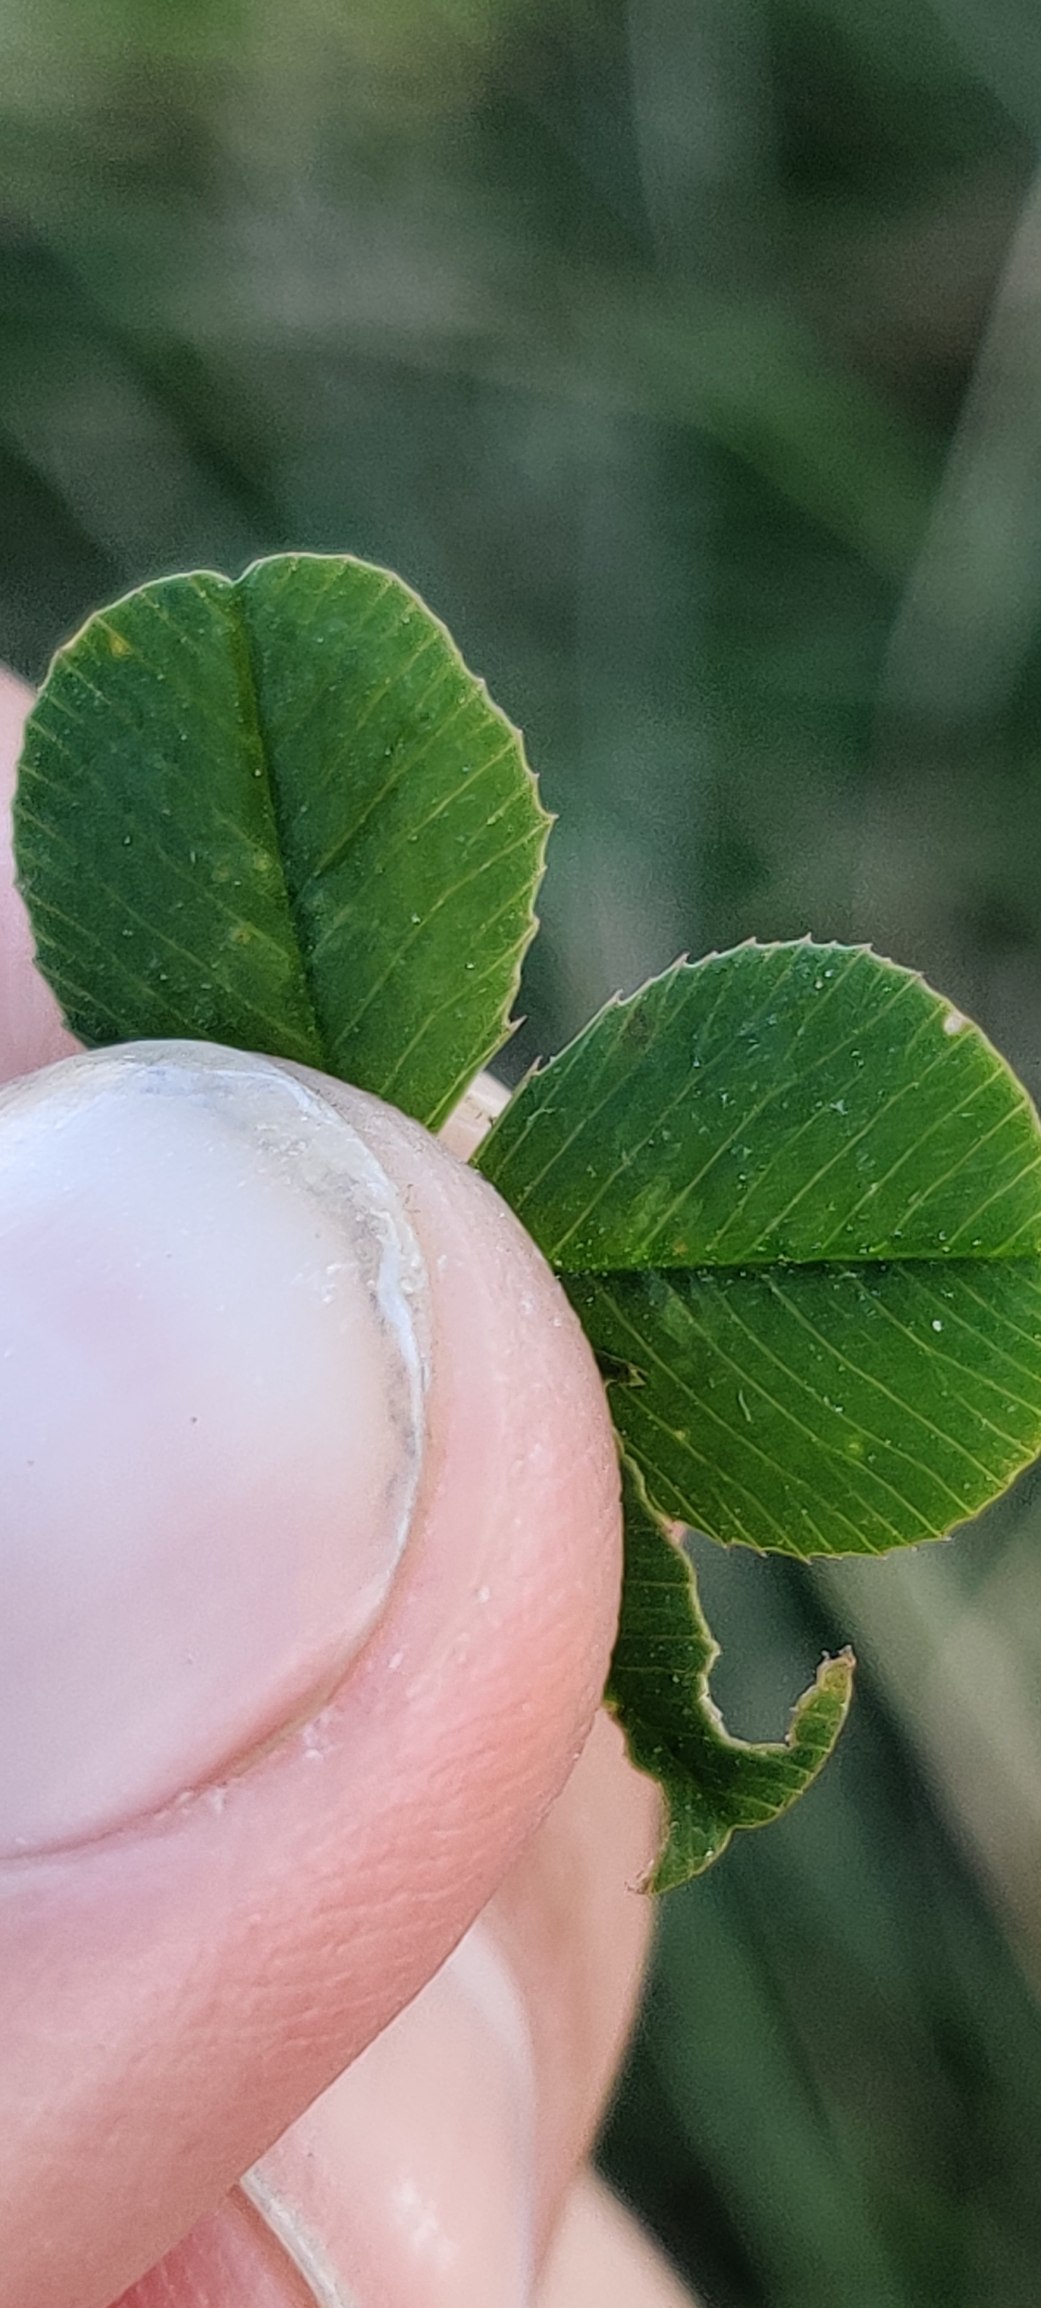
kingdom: Plantae
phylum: Tracheophyta
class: Magnoliopsida
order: Fabales
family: Fabaceae
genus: Trifolium
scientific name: Trifolium repens
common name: Hvid-kløver
